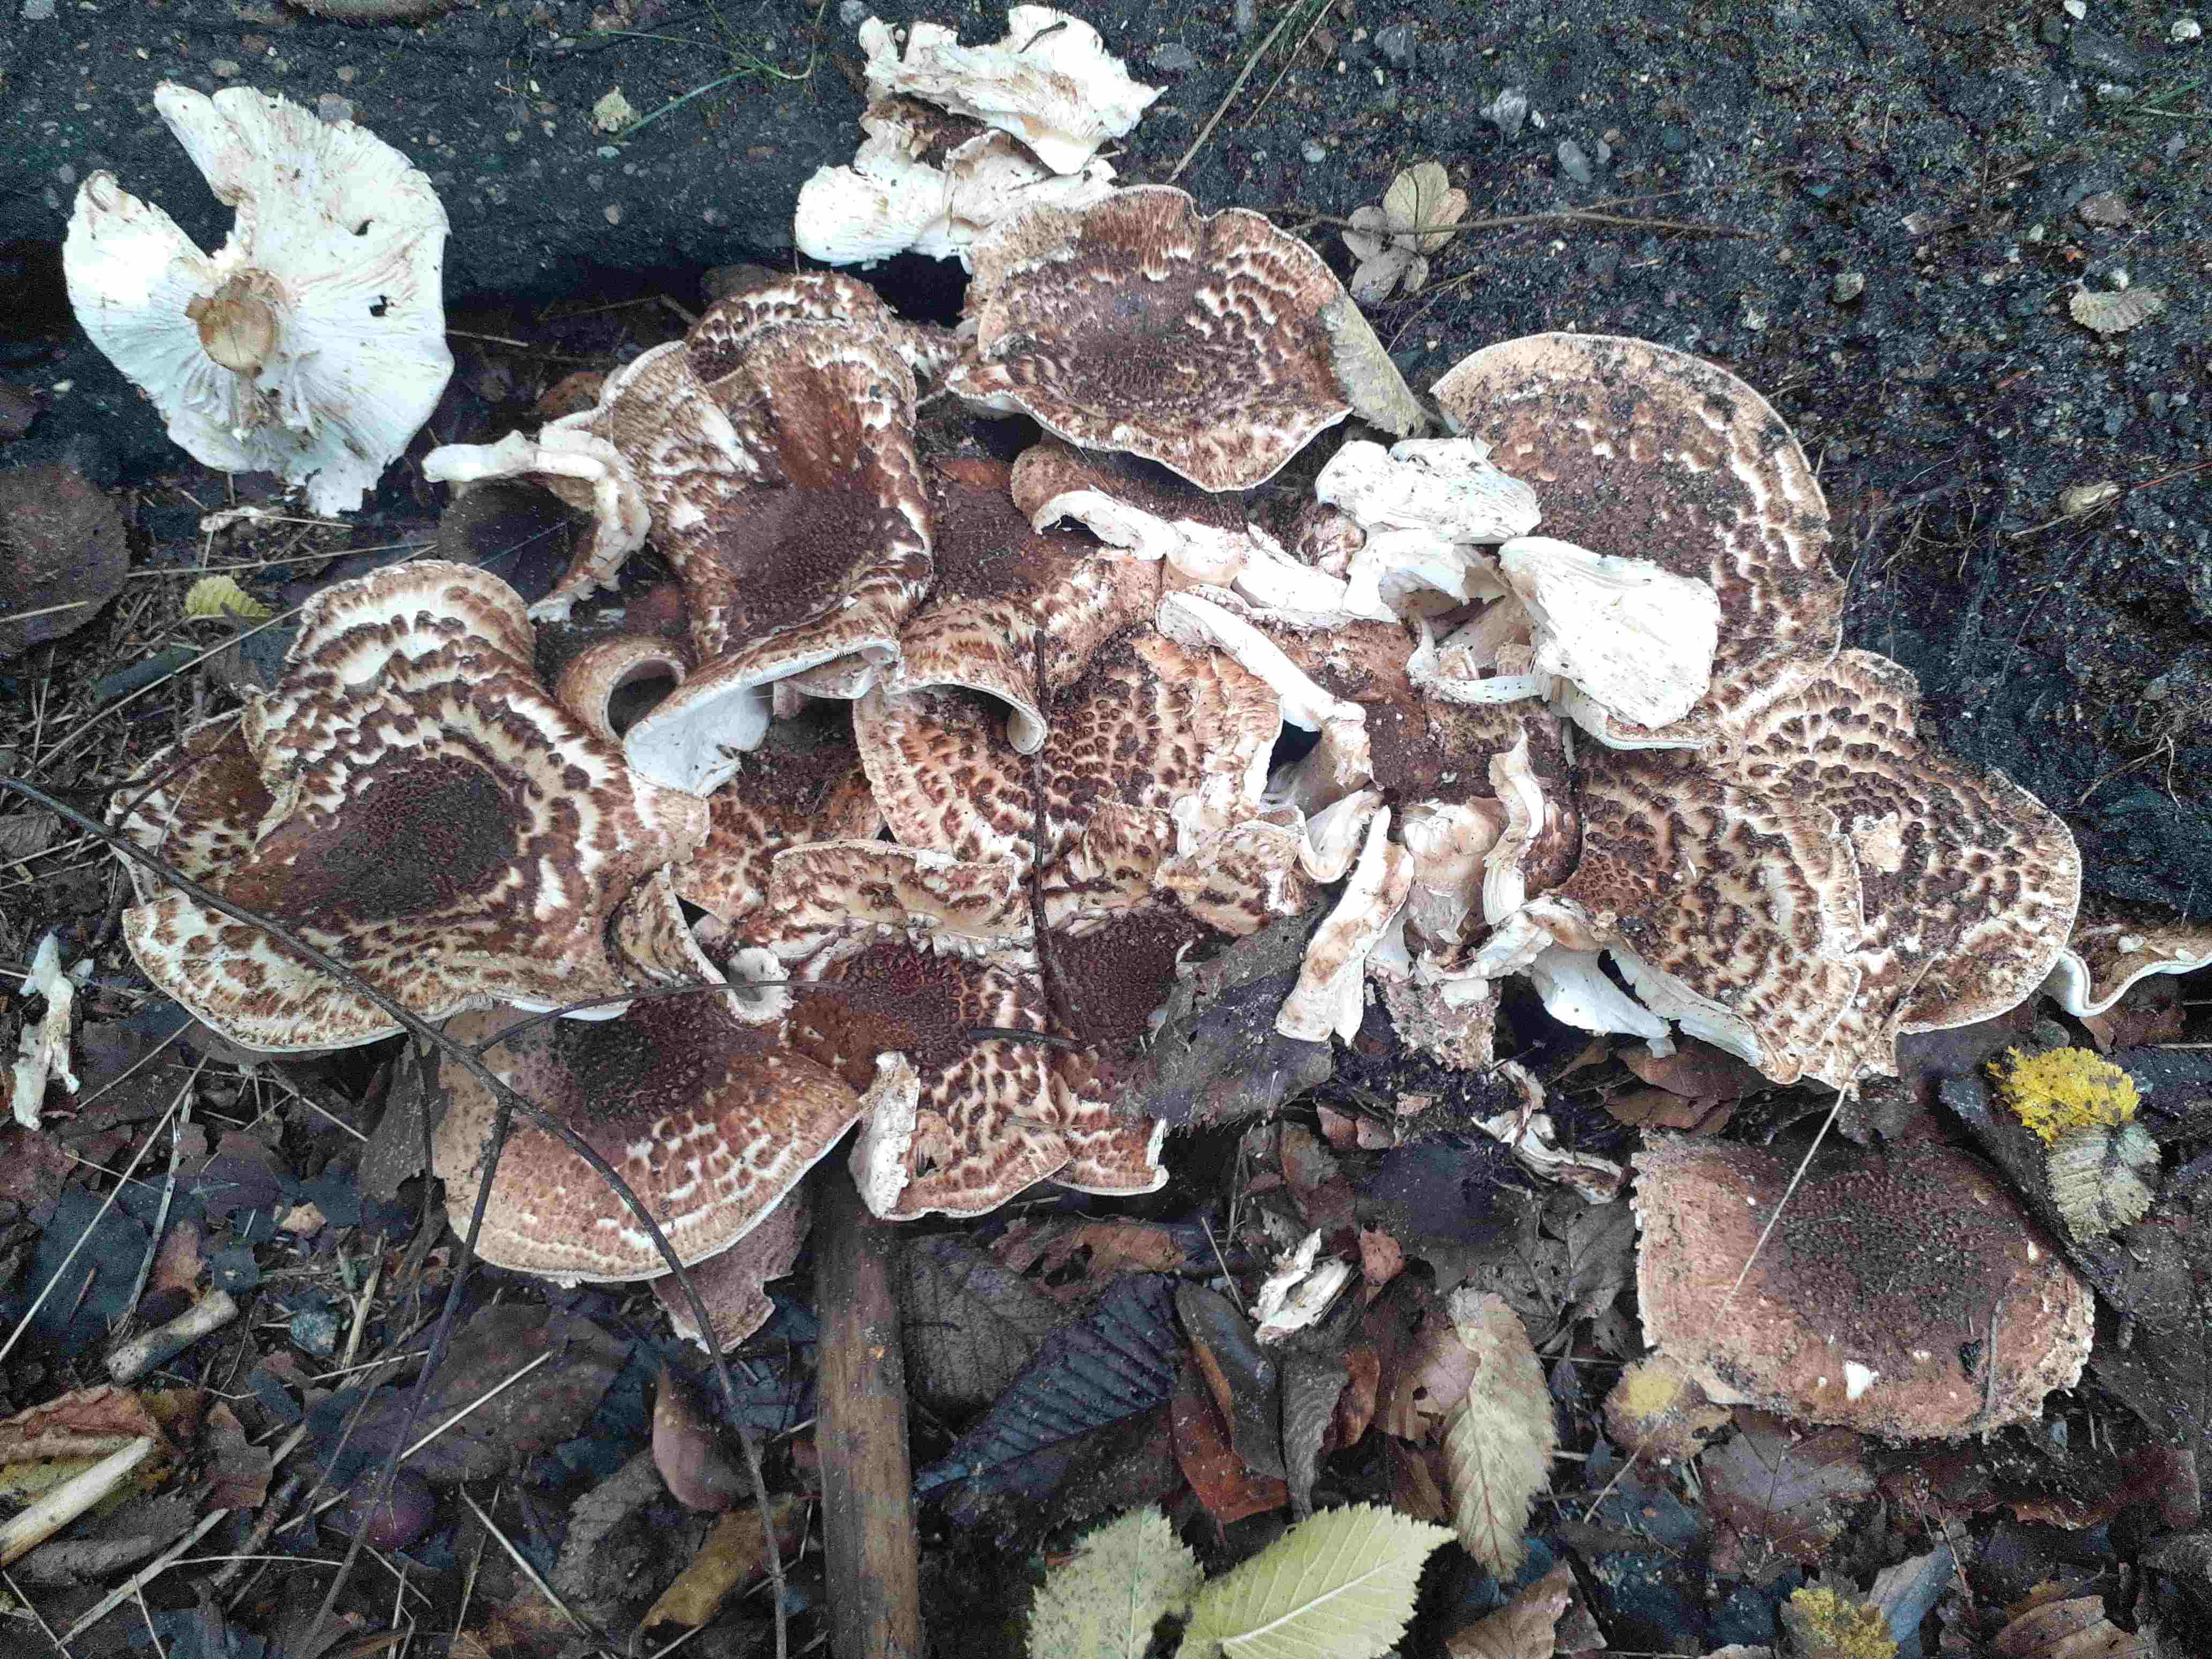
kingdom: Fungi
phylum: Basidiomycota
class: Agaricomycetes
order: Agaricales
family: Agaricaceae
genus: Echinoderma
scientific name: Echinoderma asperum
